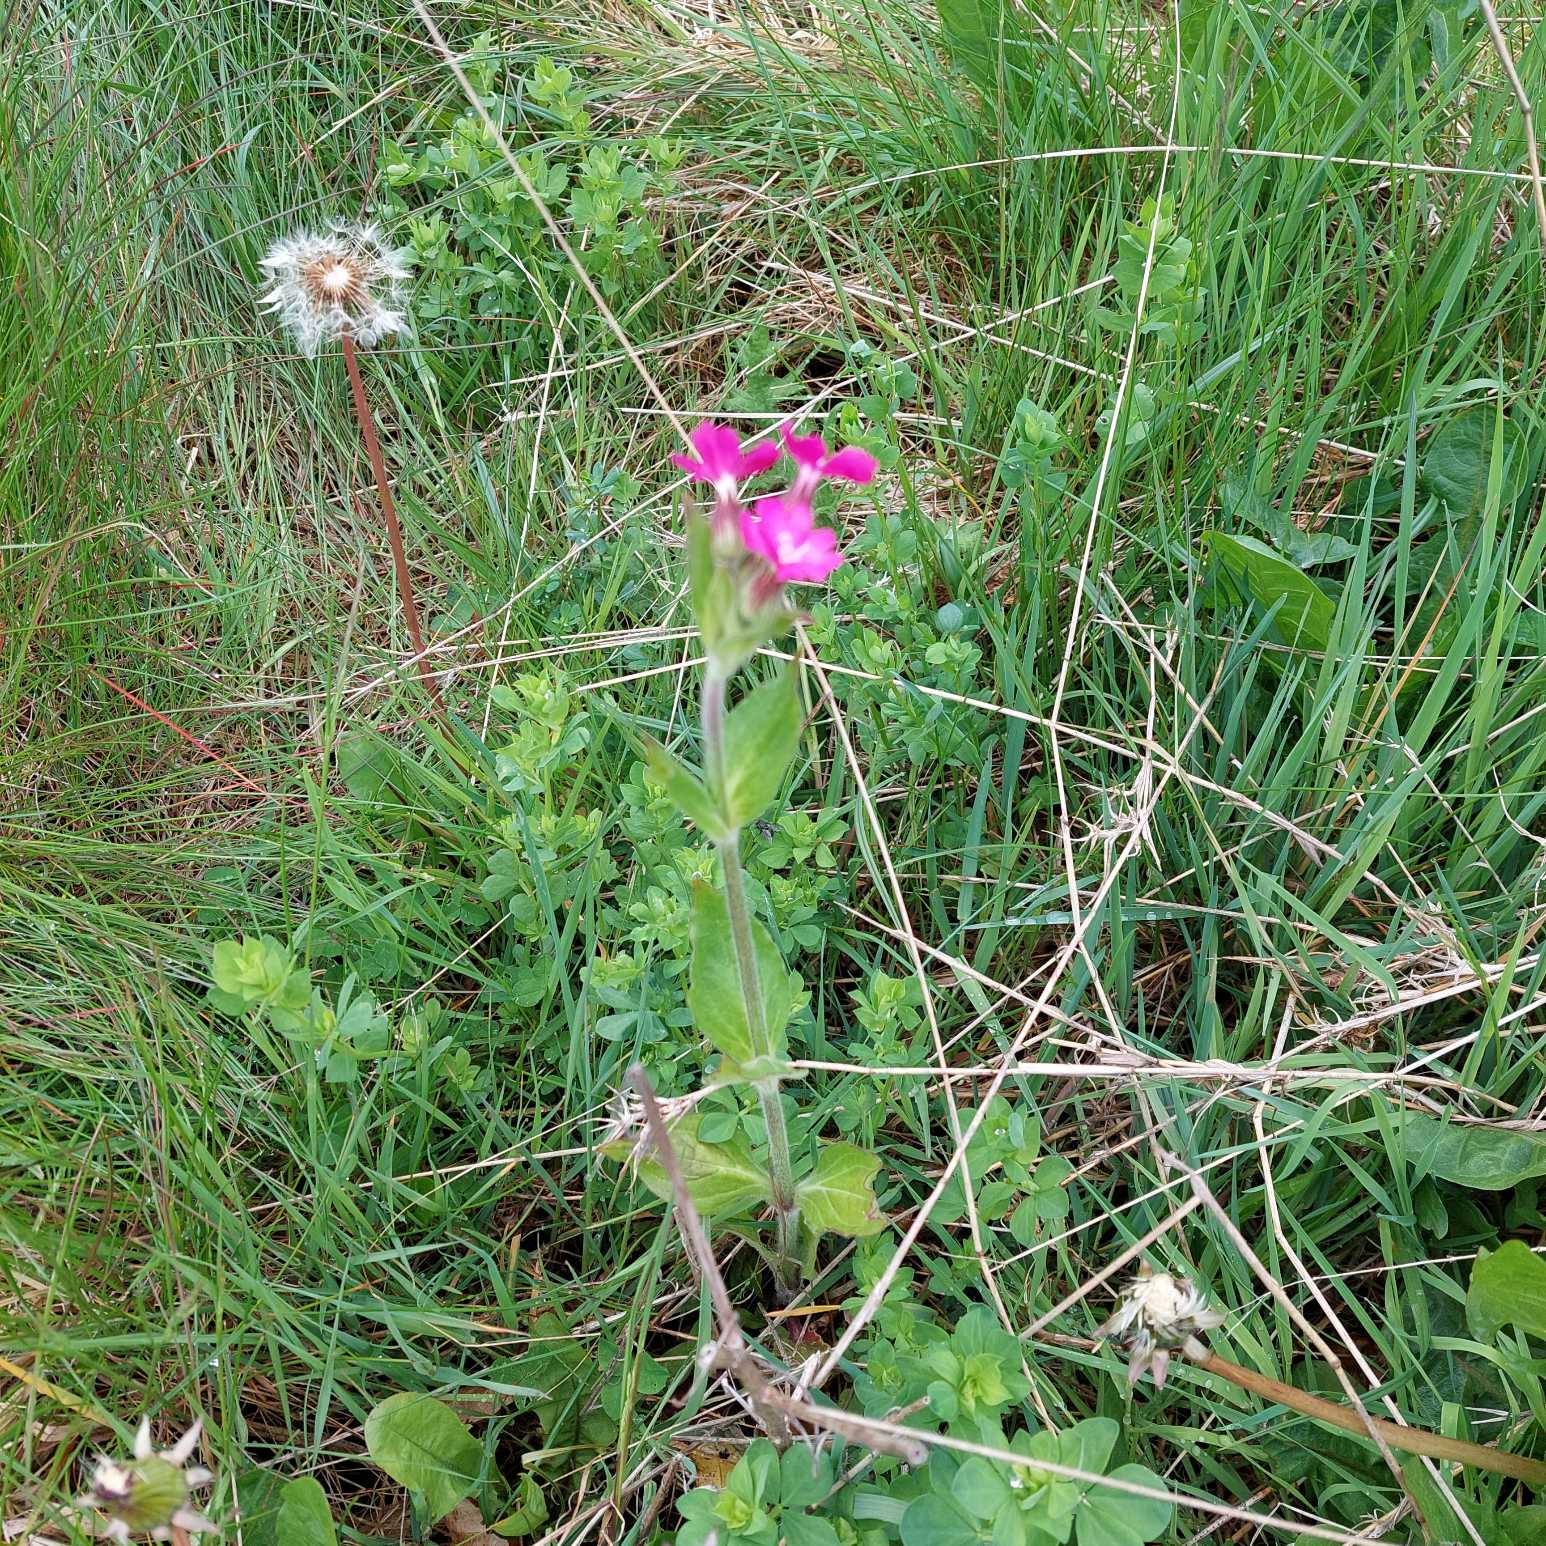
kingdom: Plantae
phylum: Tracheophyta
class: Magnoliopsida
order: Caryophyllales
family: Caryophyllaceae
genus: Silene
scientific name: Silene dioica
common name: Dagpragtstjerne
